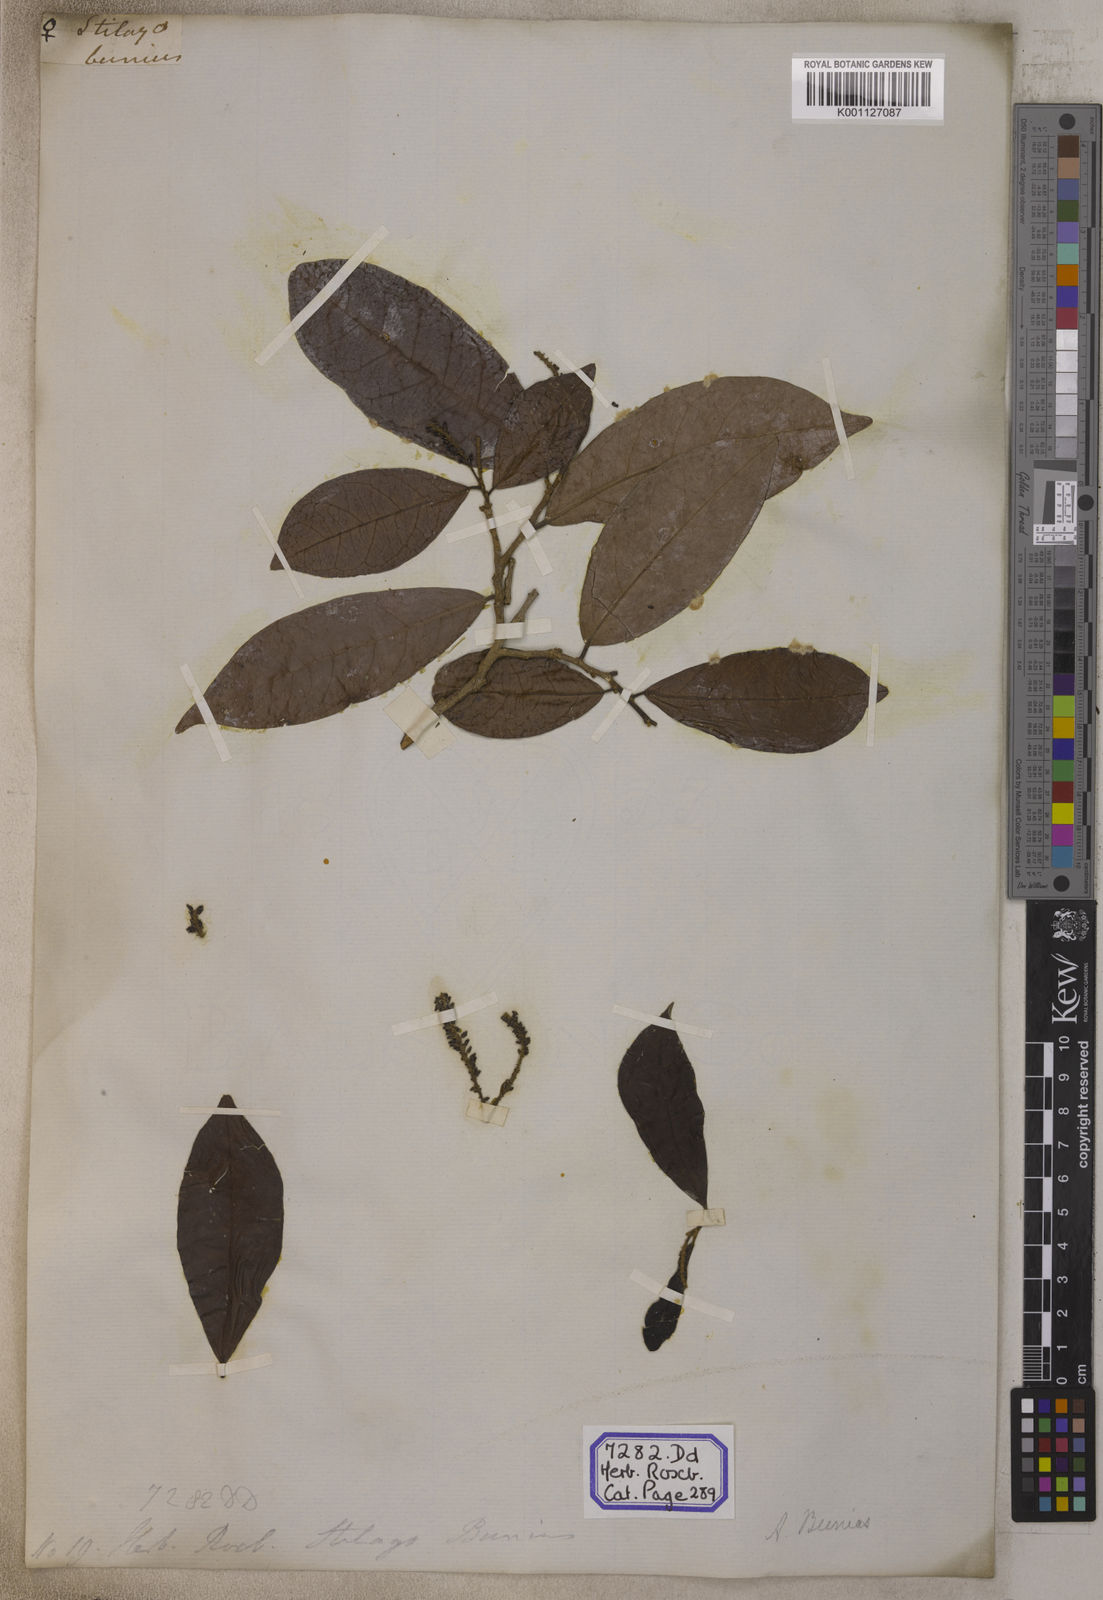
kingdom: Plantae
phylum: Tracheophyta
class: Magnoliopsida
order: Malpighiales
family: Phyllanthaceae
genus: Antidesma
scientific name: Antidesma nigricans
